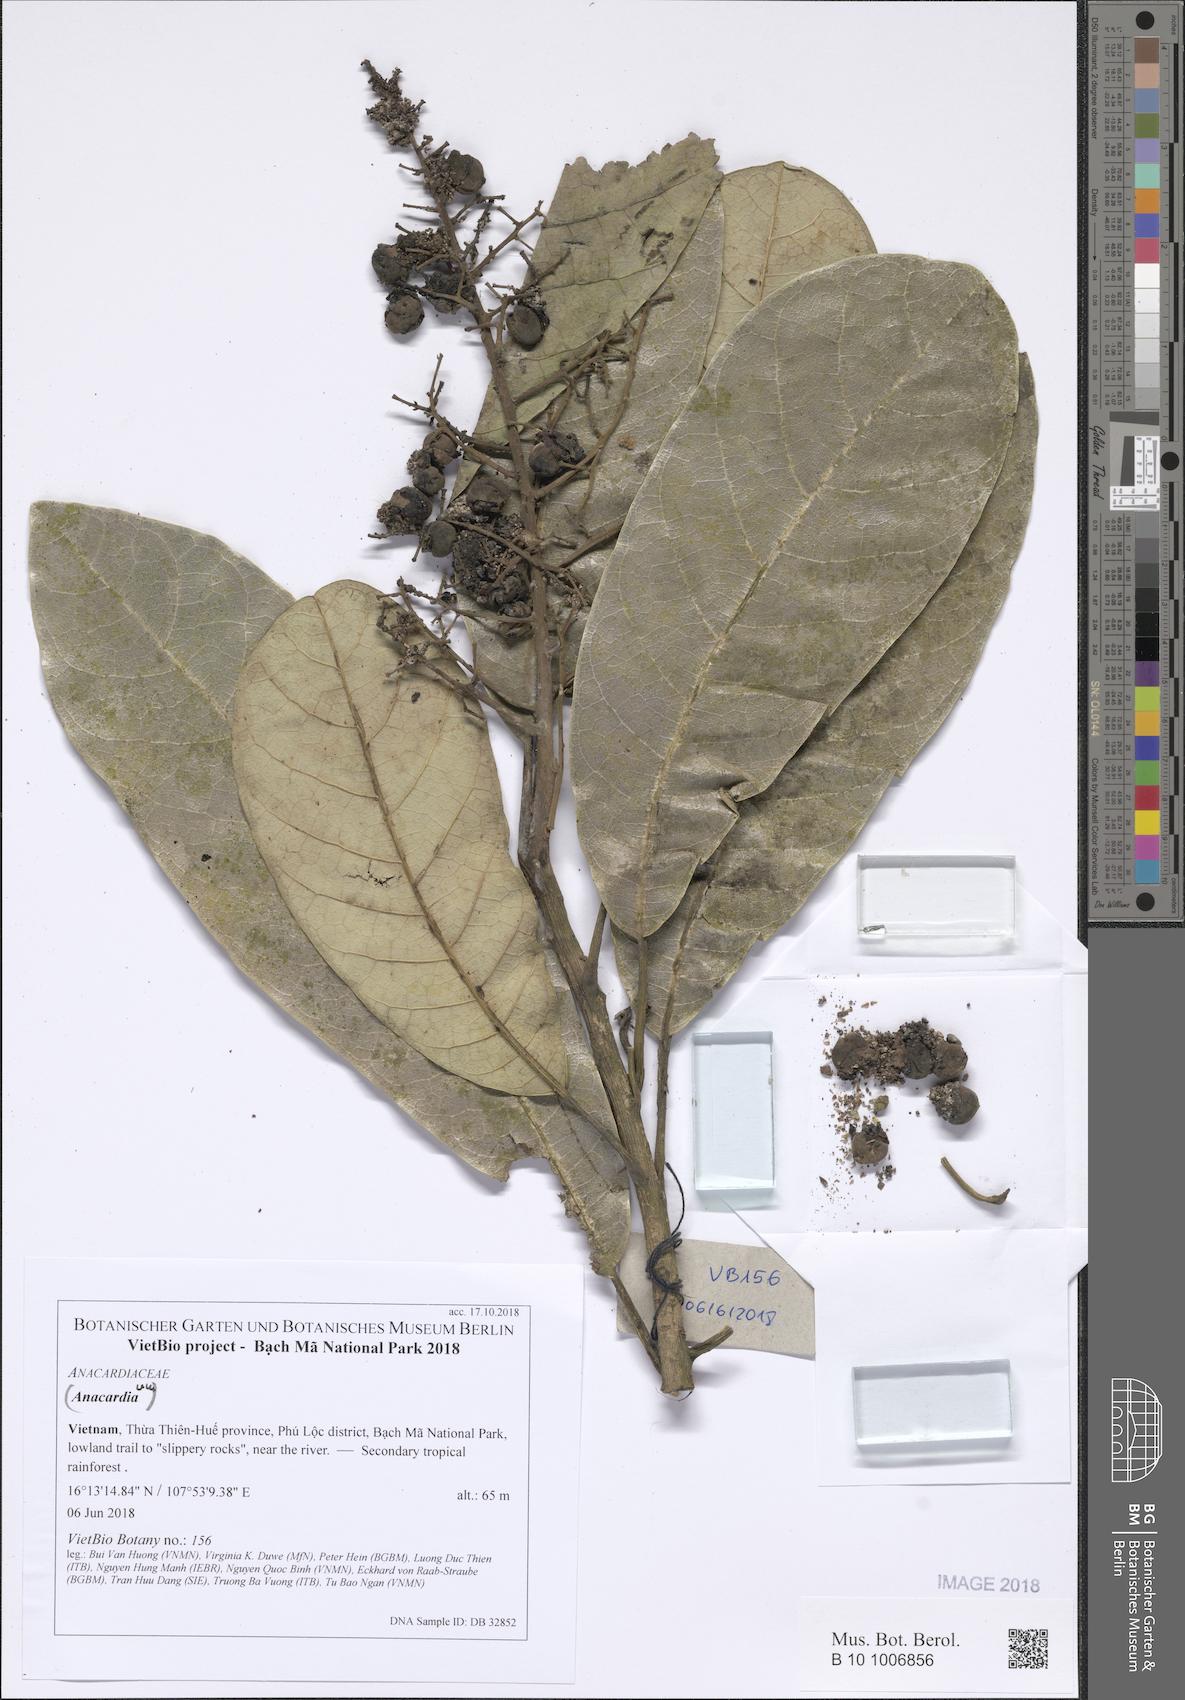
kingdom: Plantae
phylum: Tracheophyta
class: Magnoliopsida
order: Sapindales
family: Anacardiaceae
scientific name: Anacardiaceae
